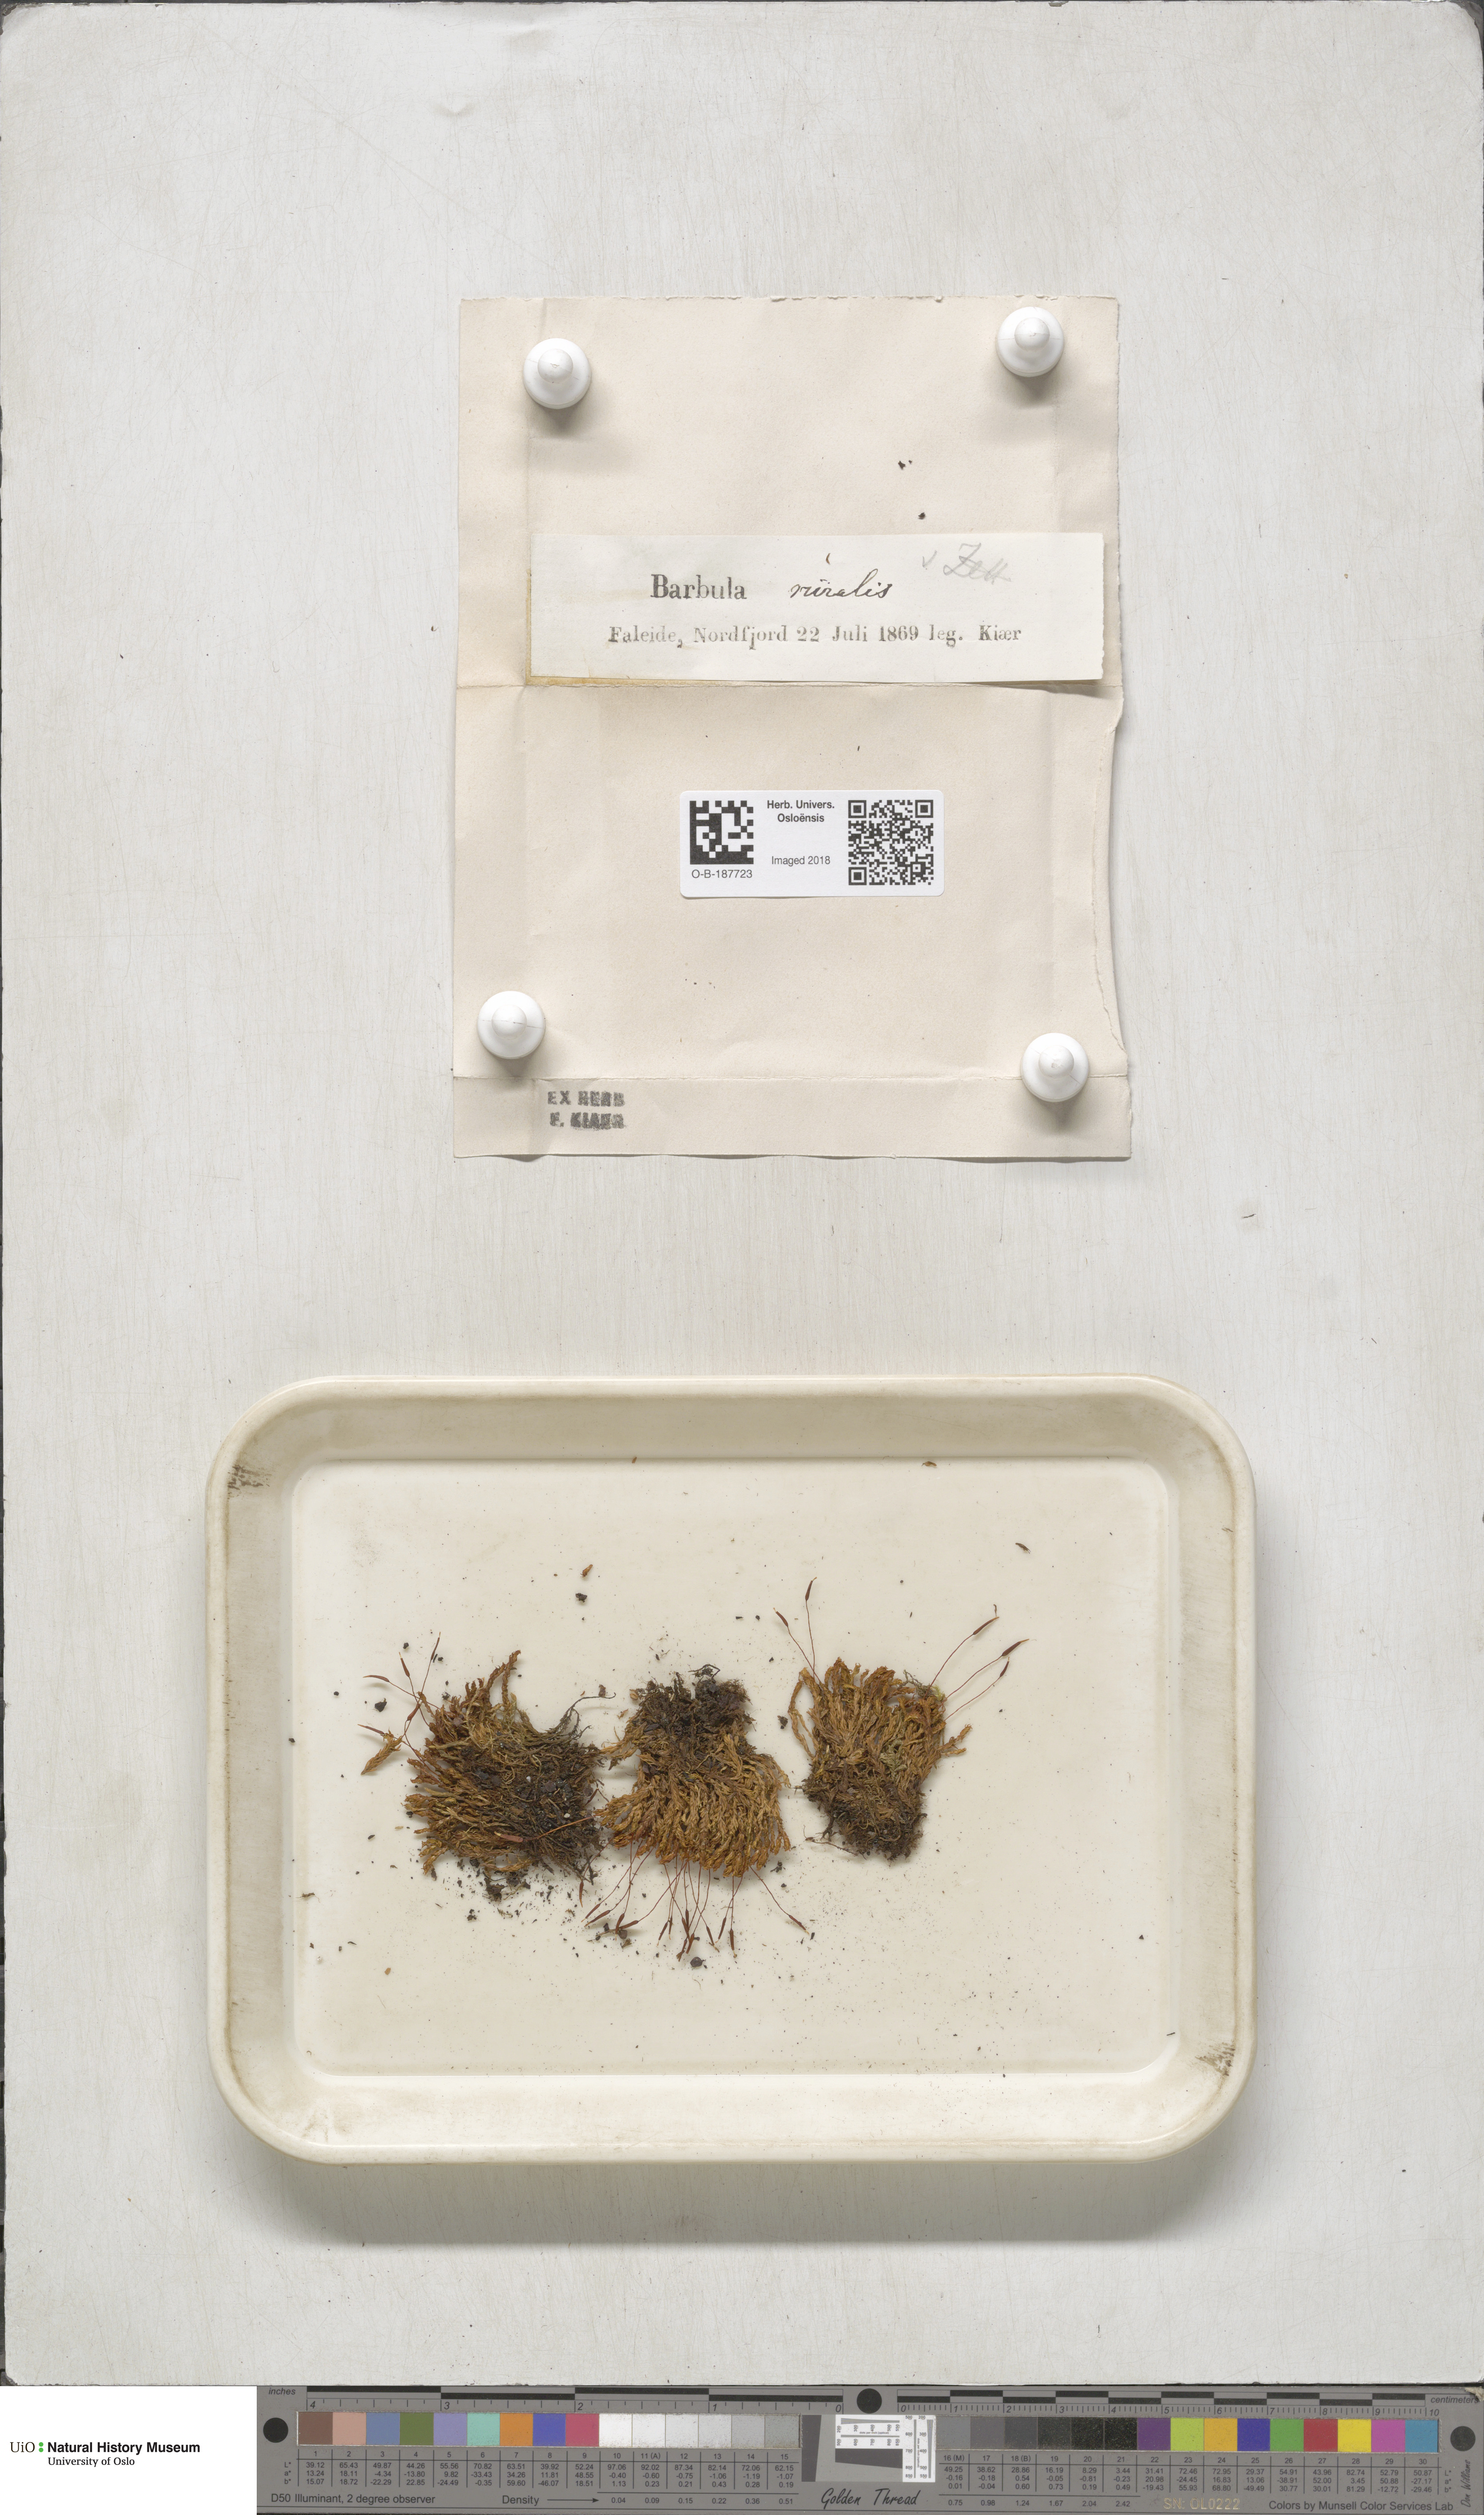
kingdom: Plantae
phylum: Bryophyta
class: Bryopsida
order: Pottiales
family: Pottiaceae
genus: Syntrichia
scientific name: Syntrichia ruralis
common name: Sidewalk screw moss
